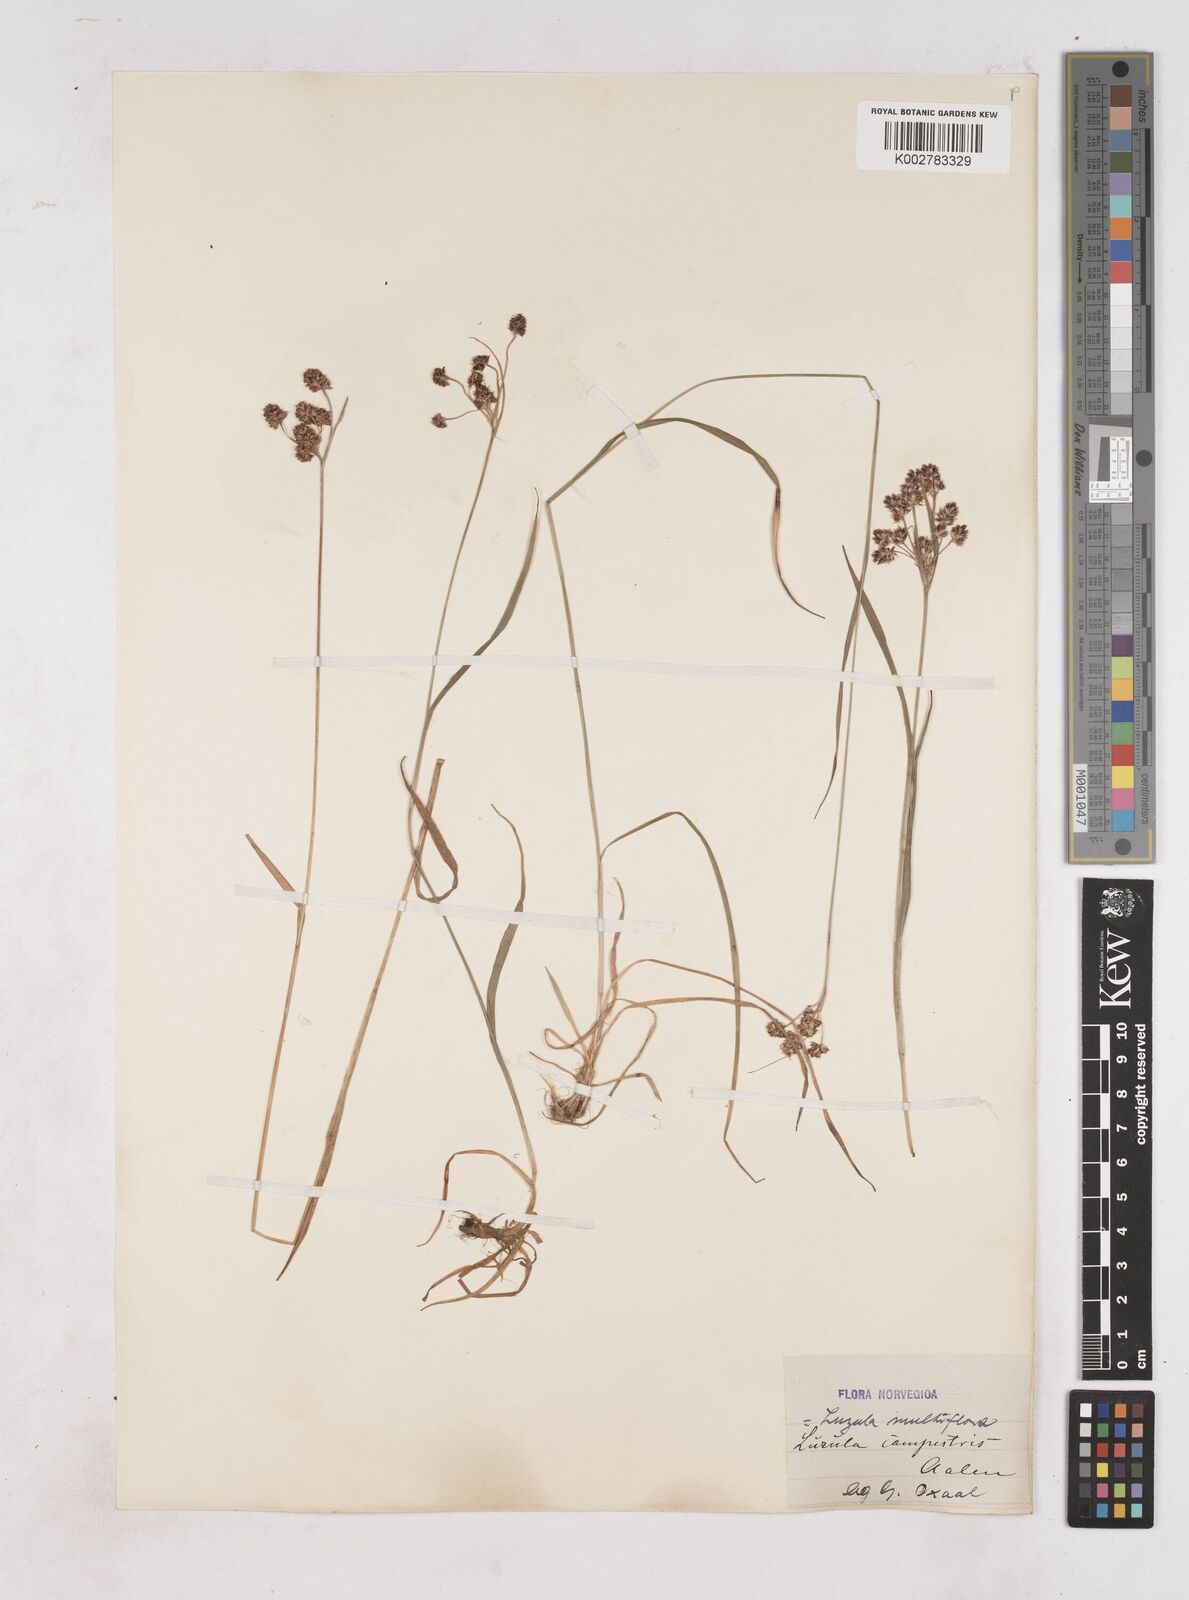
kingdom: Plantae
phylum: Tracheophyta
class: Liliopsida
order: Poales
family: Juncaceae
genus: Luzula
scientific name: Luzula multiflora
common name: Heath wood-rush
